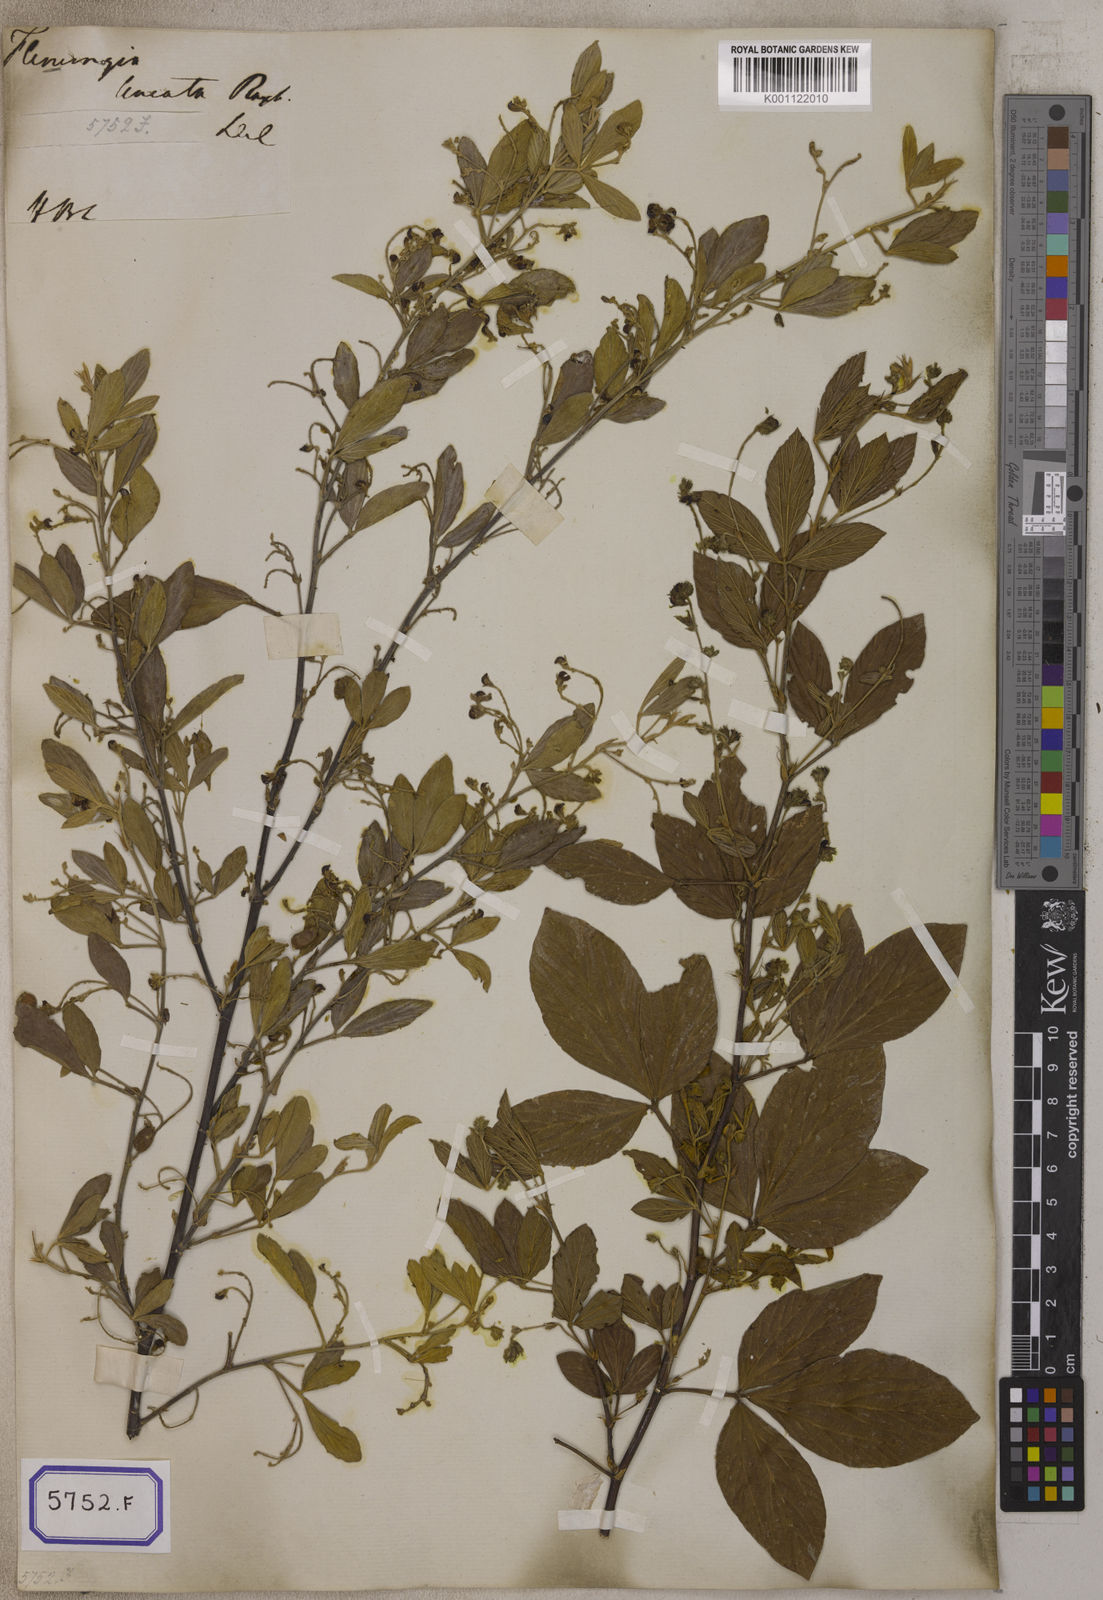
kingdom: Plantae
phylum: Tracheophyta
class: Magnoliopsida
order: Fabales
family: Fabaceae
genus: Flemingia
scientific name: Flemingia lineata
